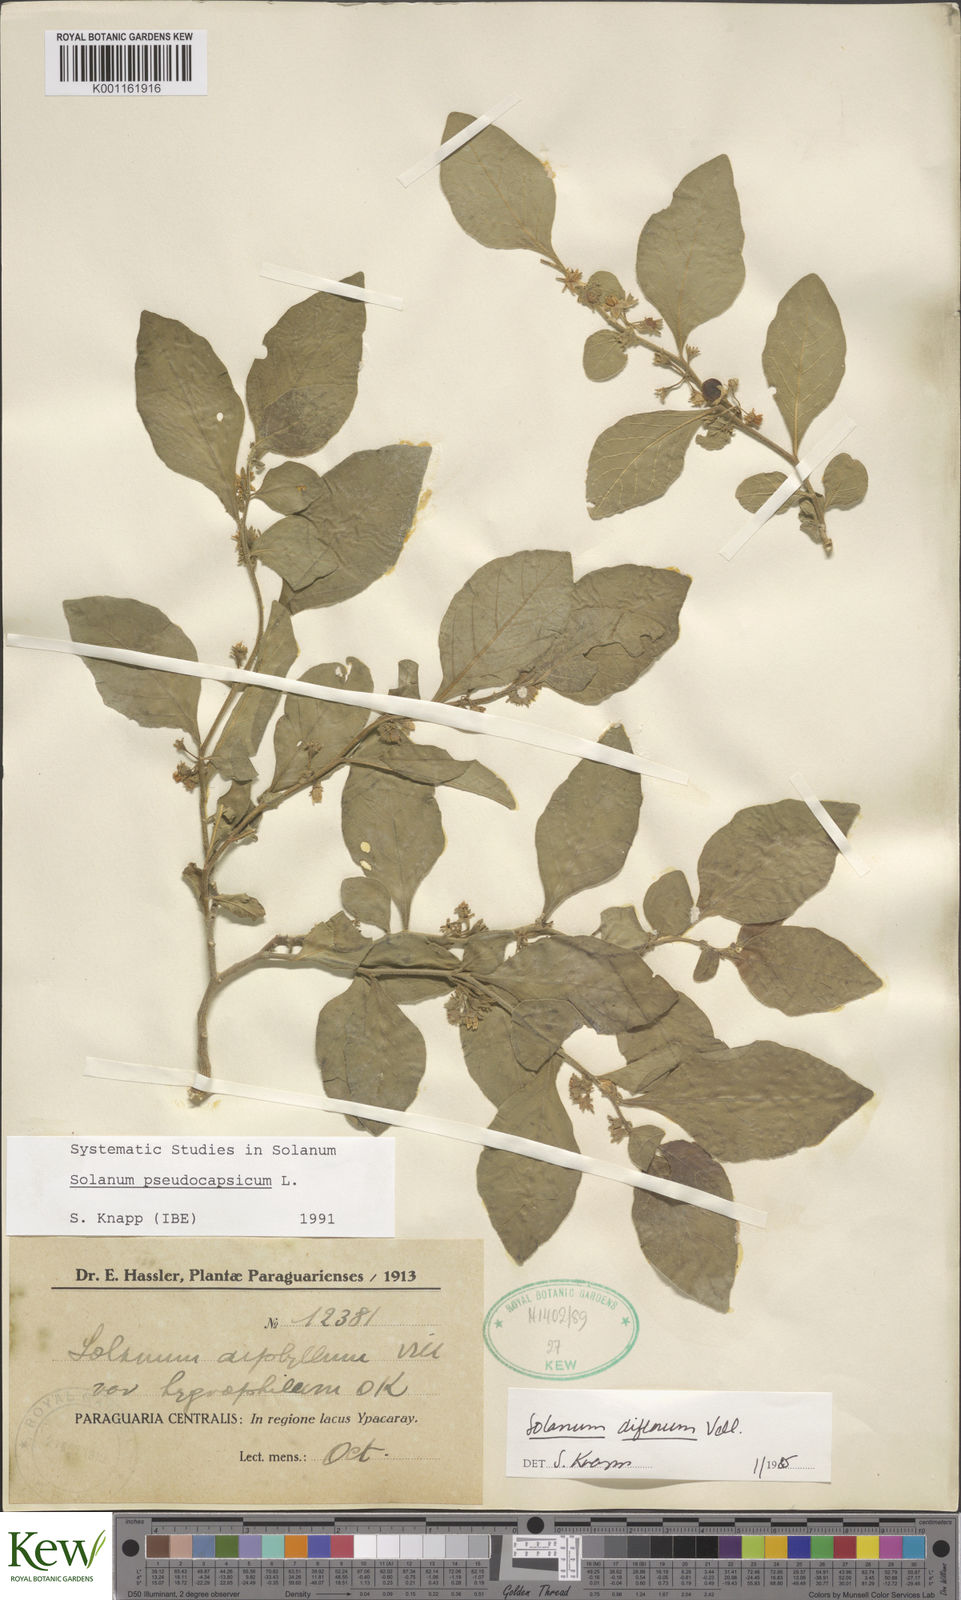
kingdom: Plantae
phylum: Tracheophyta
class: Magnoliopsida
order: Solanales
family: Solanaceae
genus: Solanum
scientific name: Solanum pseudocapsicum
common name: Jerusalem cherry
